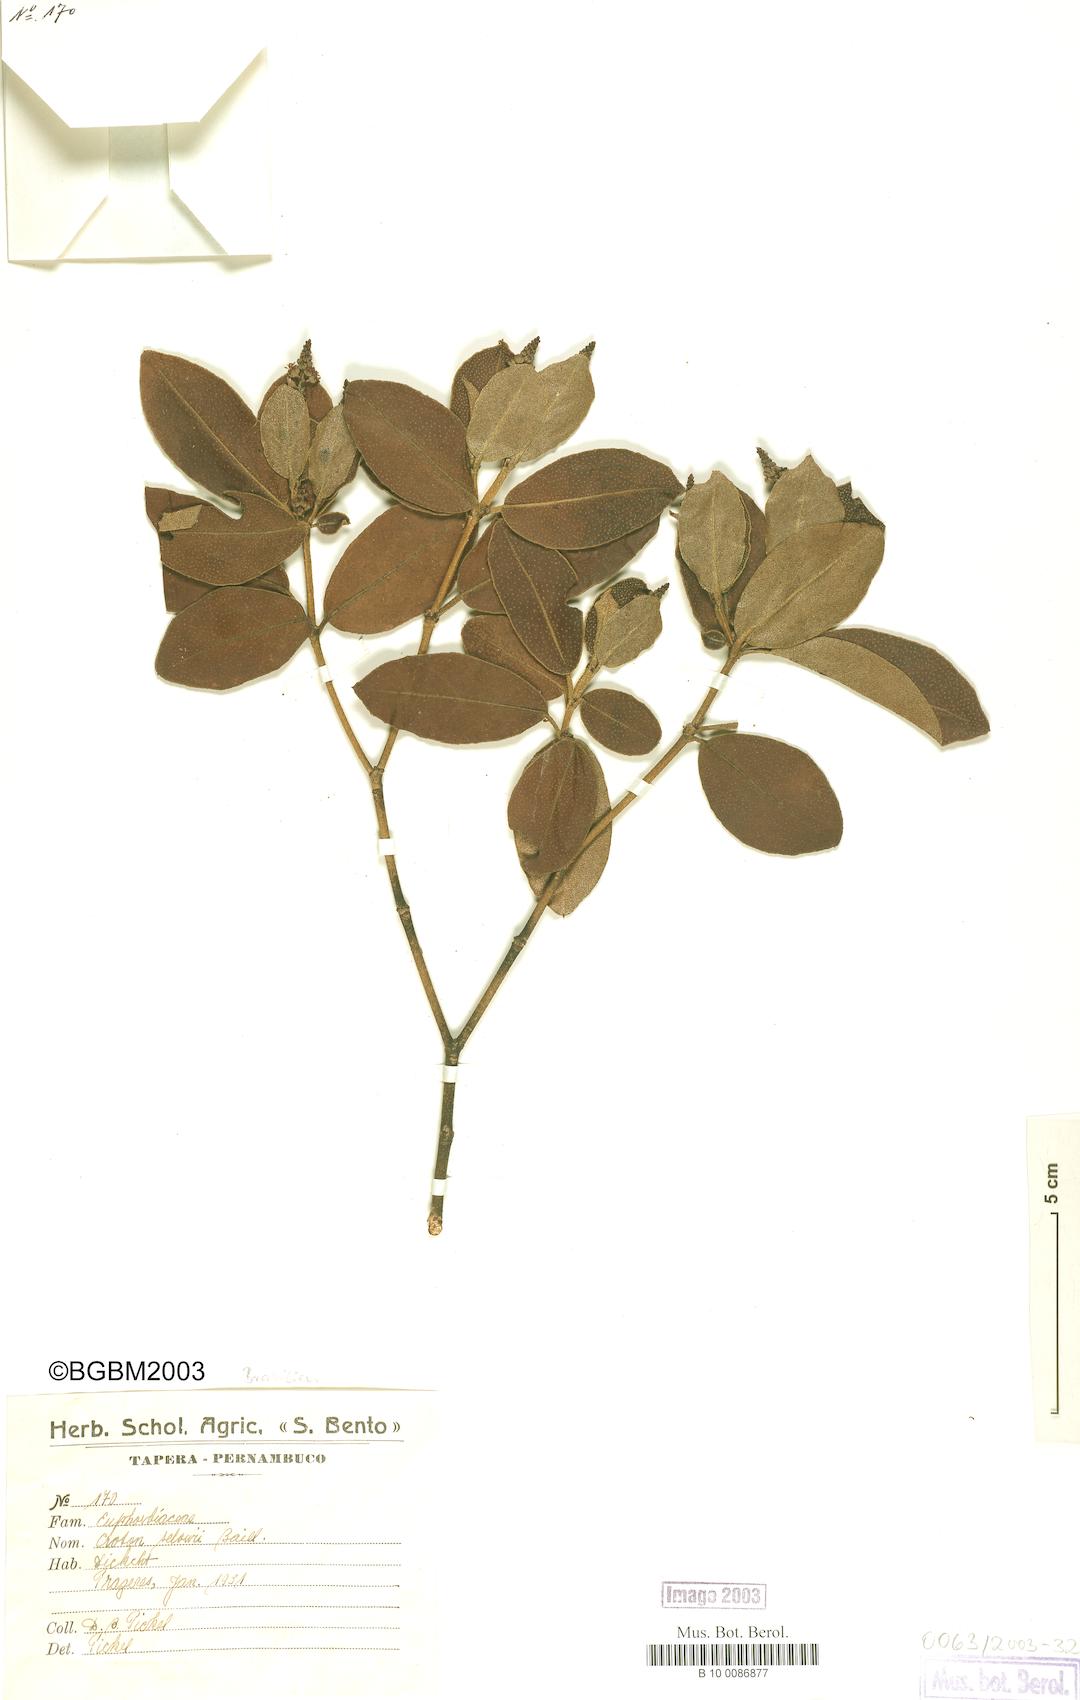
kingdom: Plantae
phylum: Tracheophyta
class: Magnoliopsida
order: Malpighiales
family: Euphorbiaceae
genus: Croton
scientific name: Croton sellowii
